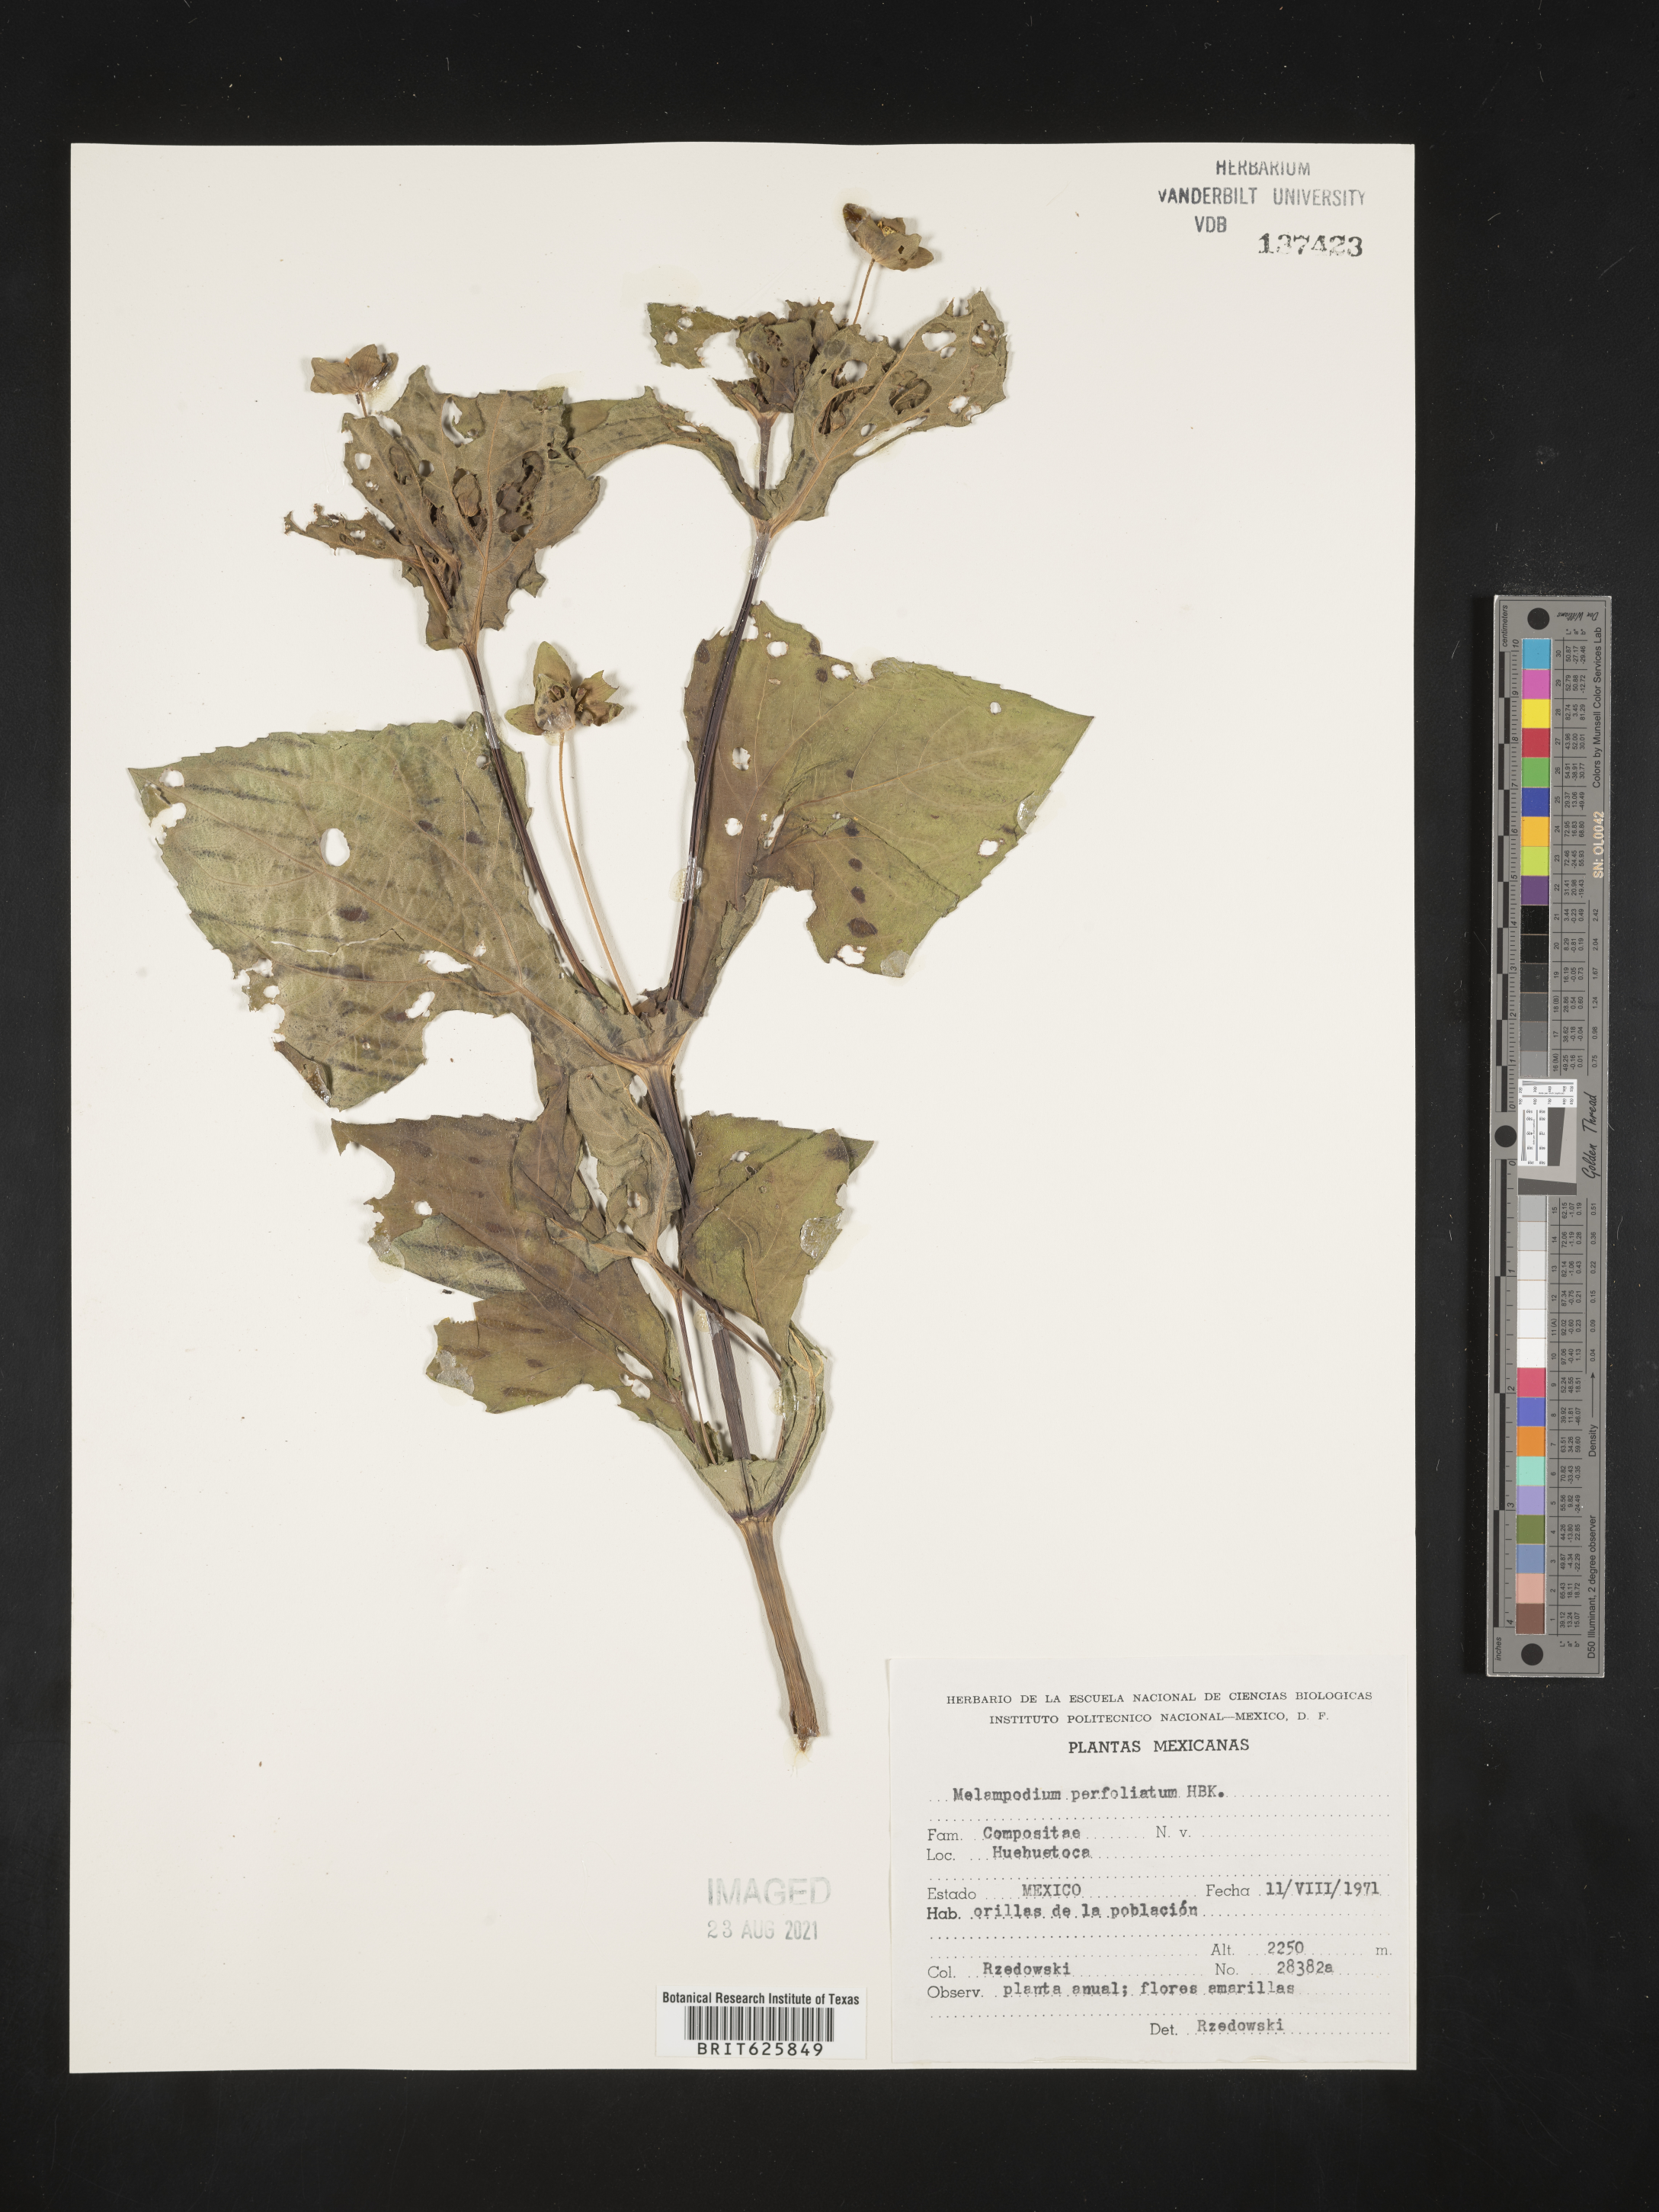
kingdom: Plantae
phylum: Tracheophyta
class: Magnoliopsida
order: Asterales
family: Asteraceae
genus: Melampodium
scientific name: Melampodium
